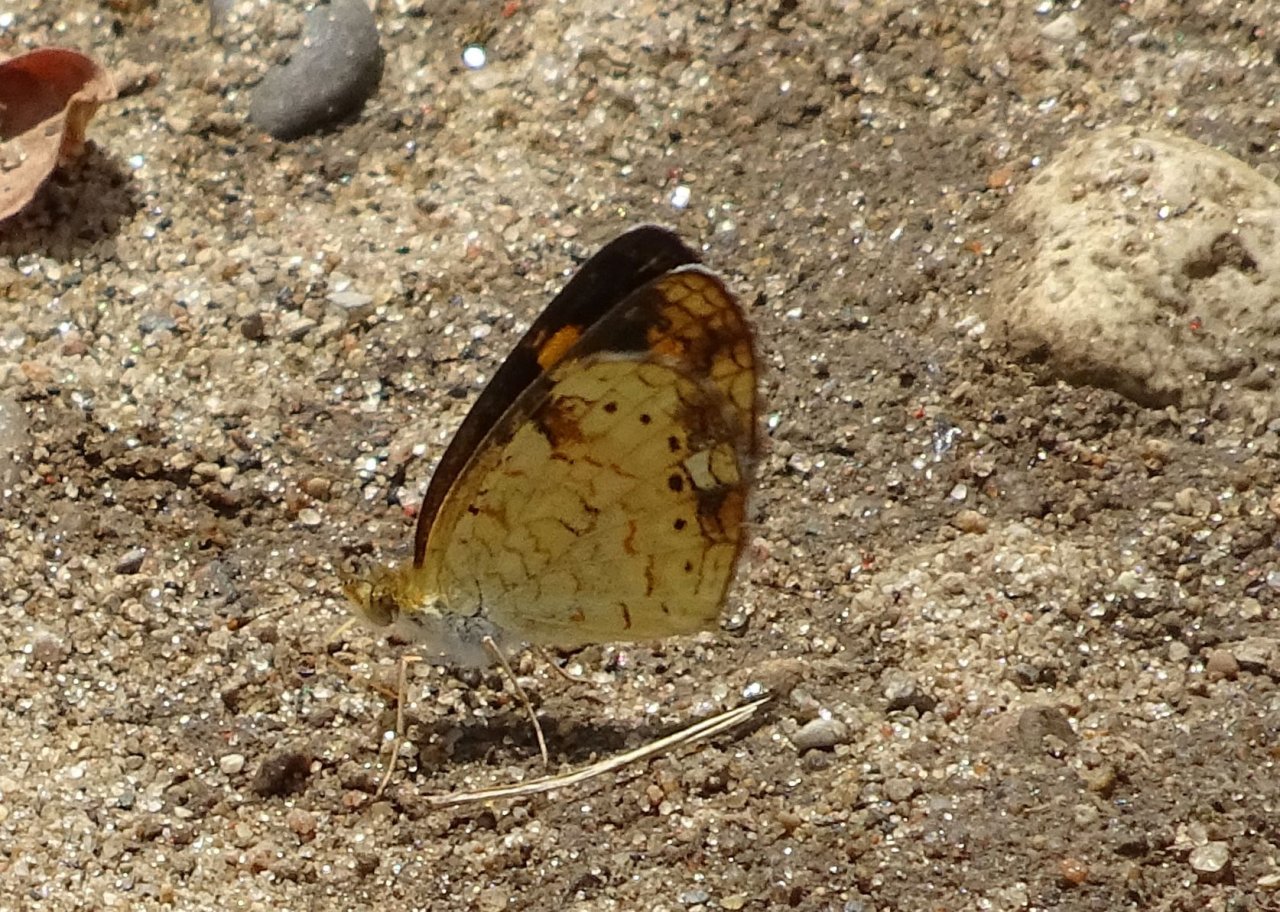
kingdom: Animalia
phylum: Arthropoda
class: Insecta
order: Lepidoptera
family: Nymphalidae
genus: Phyciodes
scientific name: Phyciodes tharos
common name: Pearl Crescent
